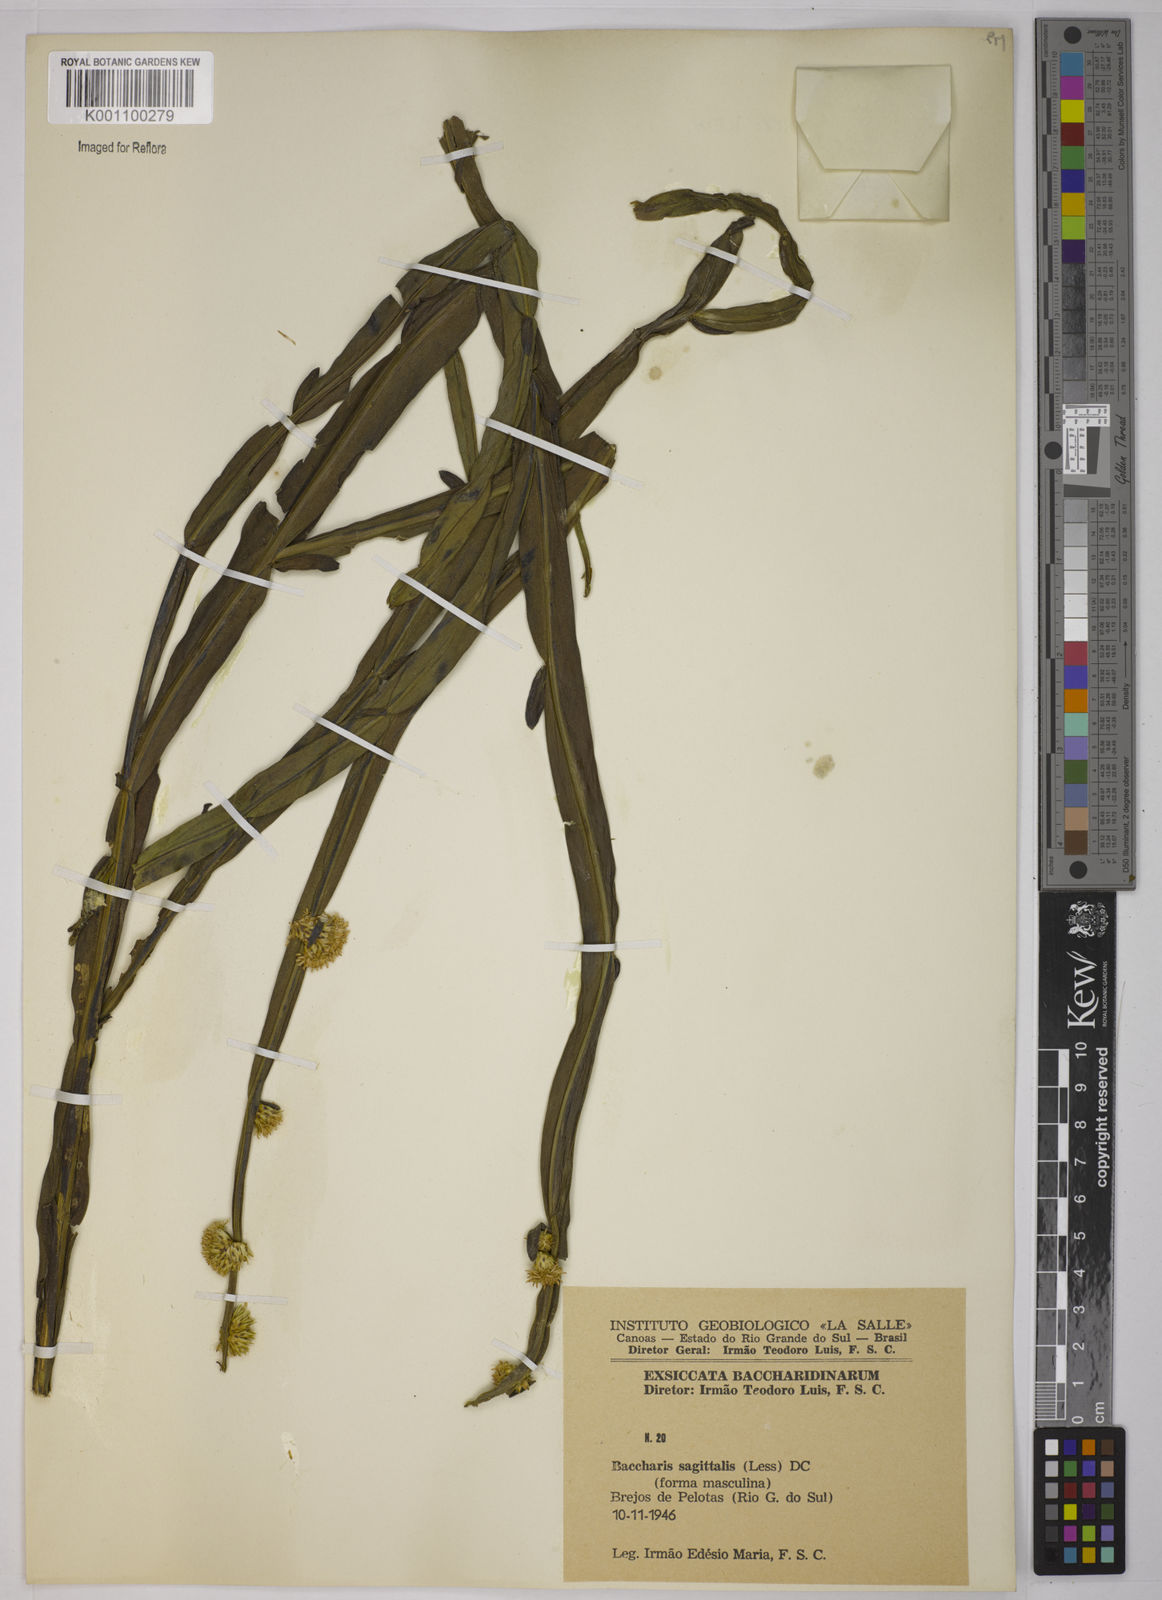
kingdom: Plantae
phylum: Tracheophyta
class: Magnoliopsida
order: Asterales
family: Asteraceae
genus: Baccharis
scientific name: Baccharis sagittalis
